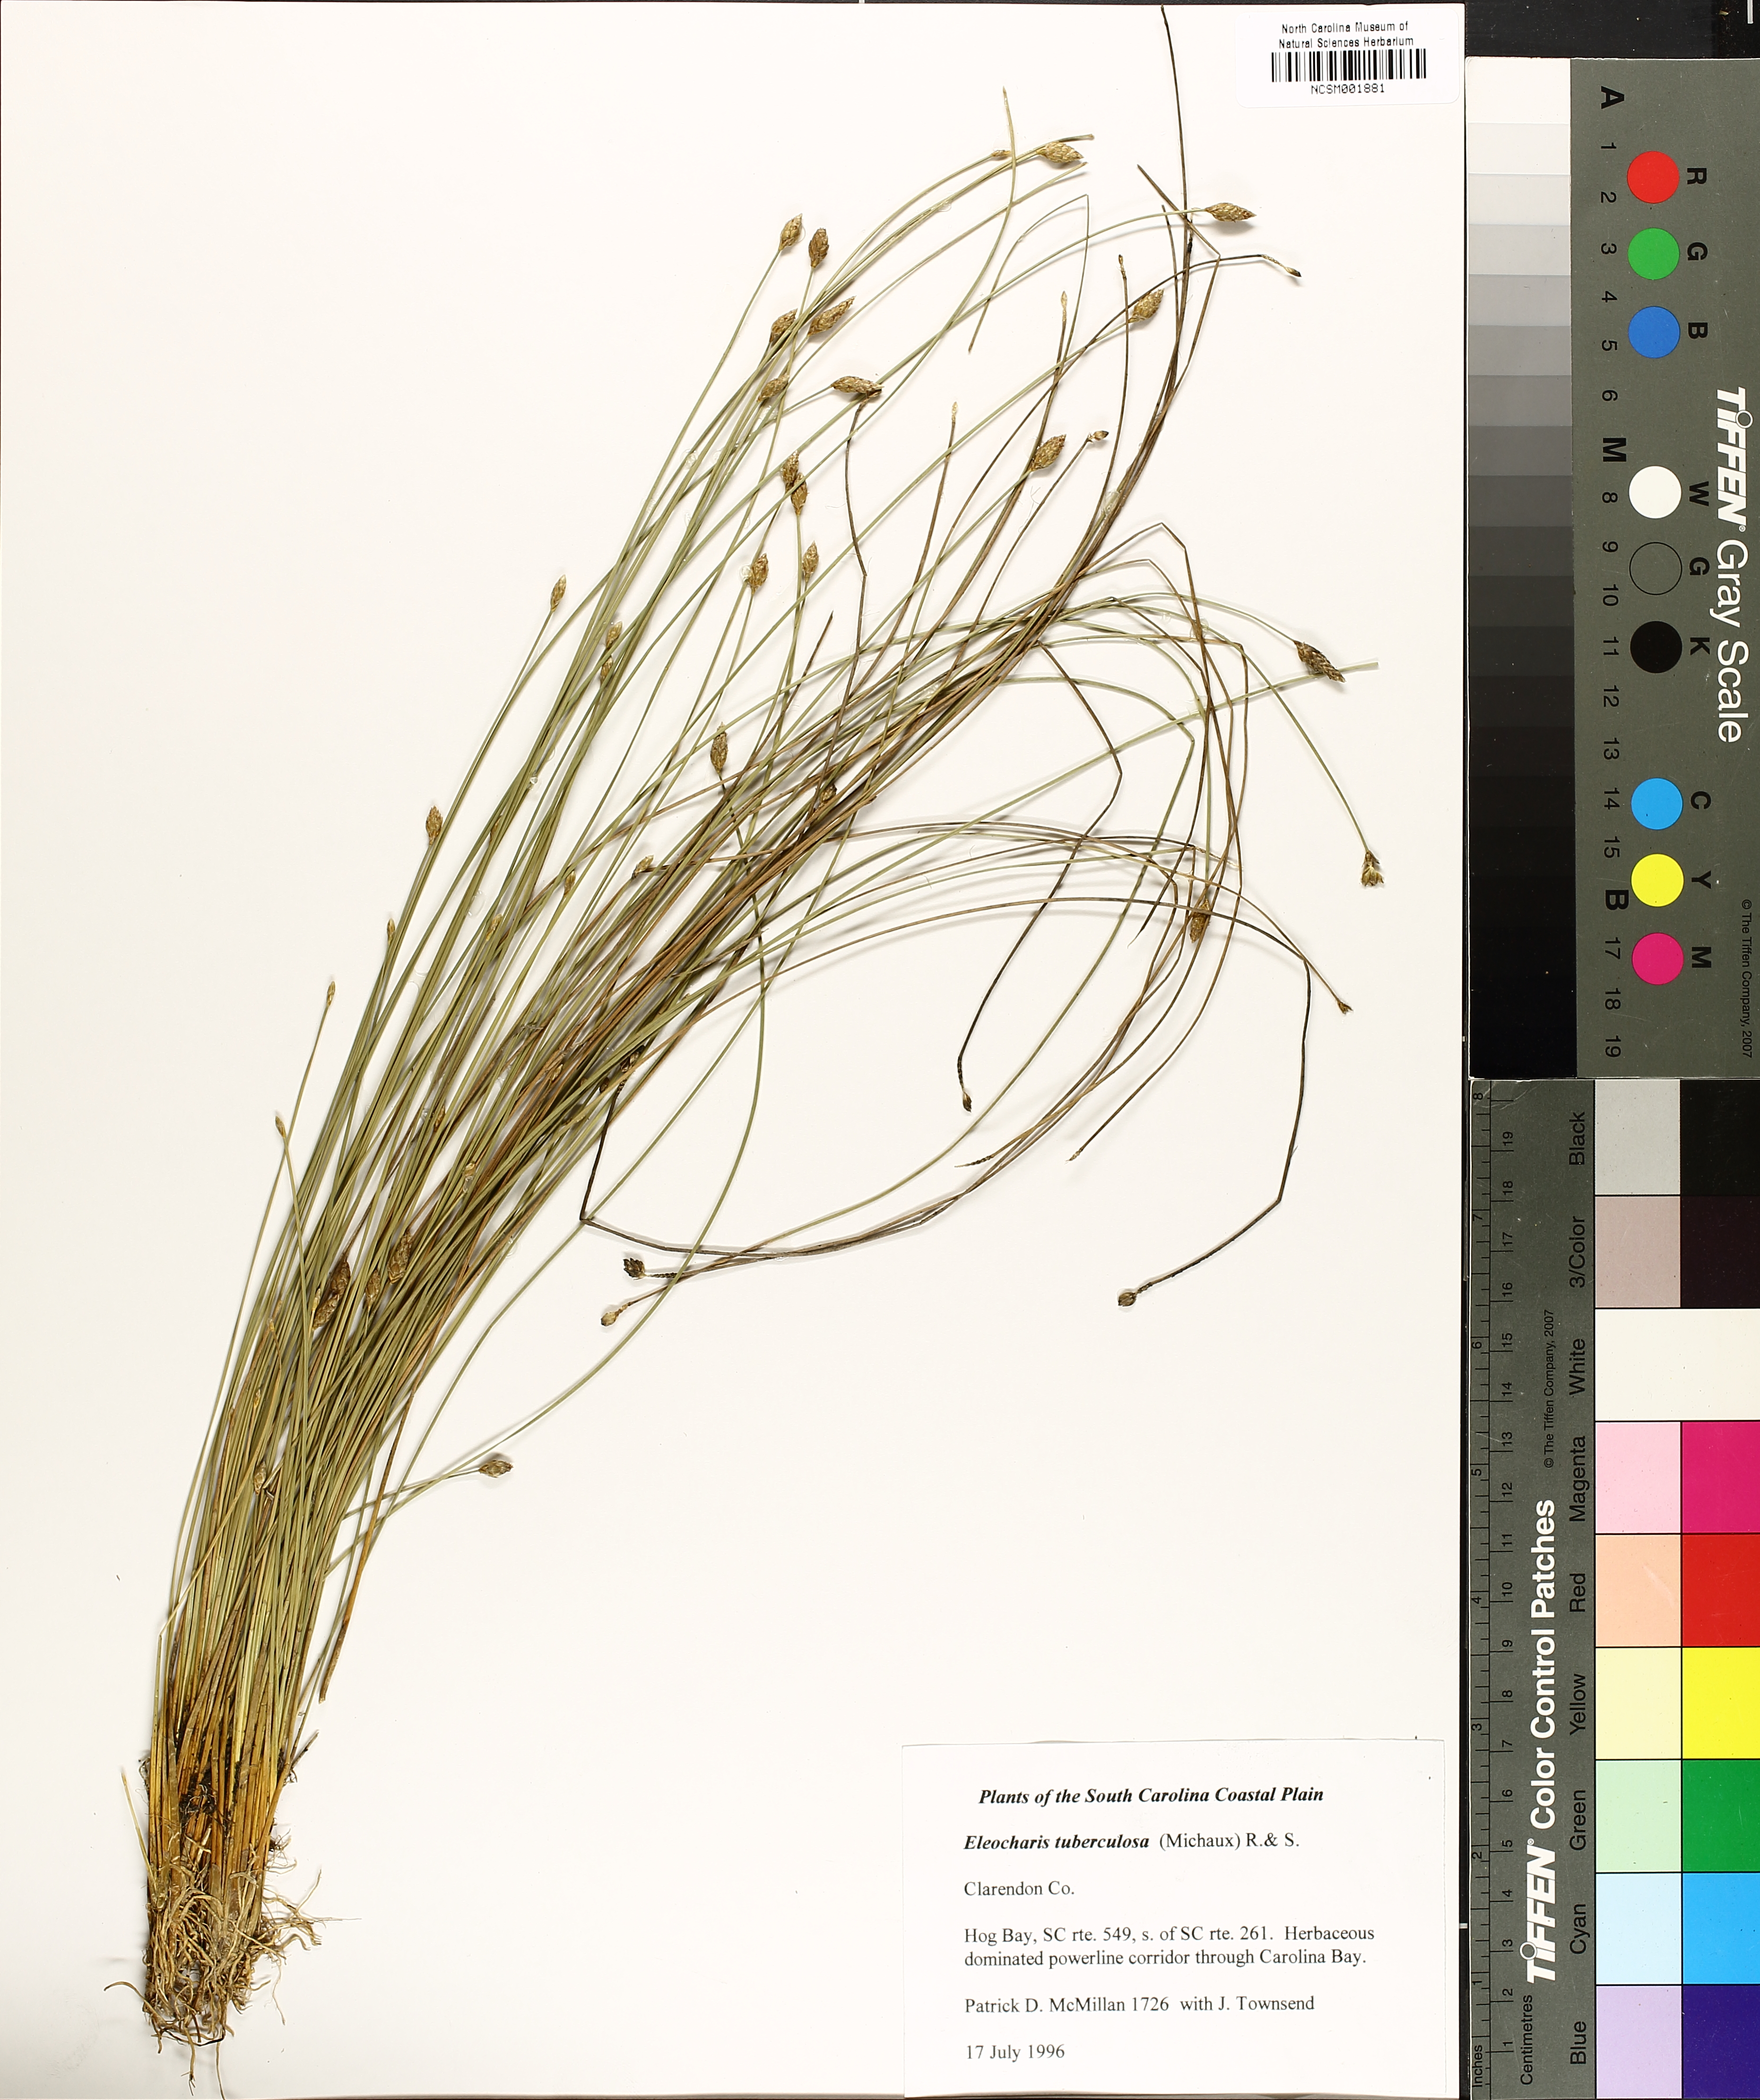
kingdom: Plantae
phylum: Tracheophyta
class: Liliopsida
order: Poales
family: Cyperaceae
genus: Eleocharis
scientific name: Eleocharis tuberculosa
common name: Cone-cup spikerush
